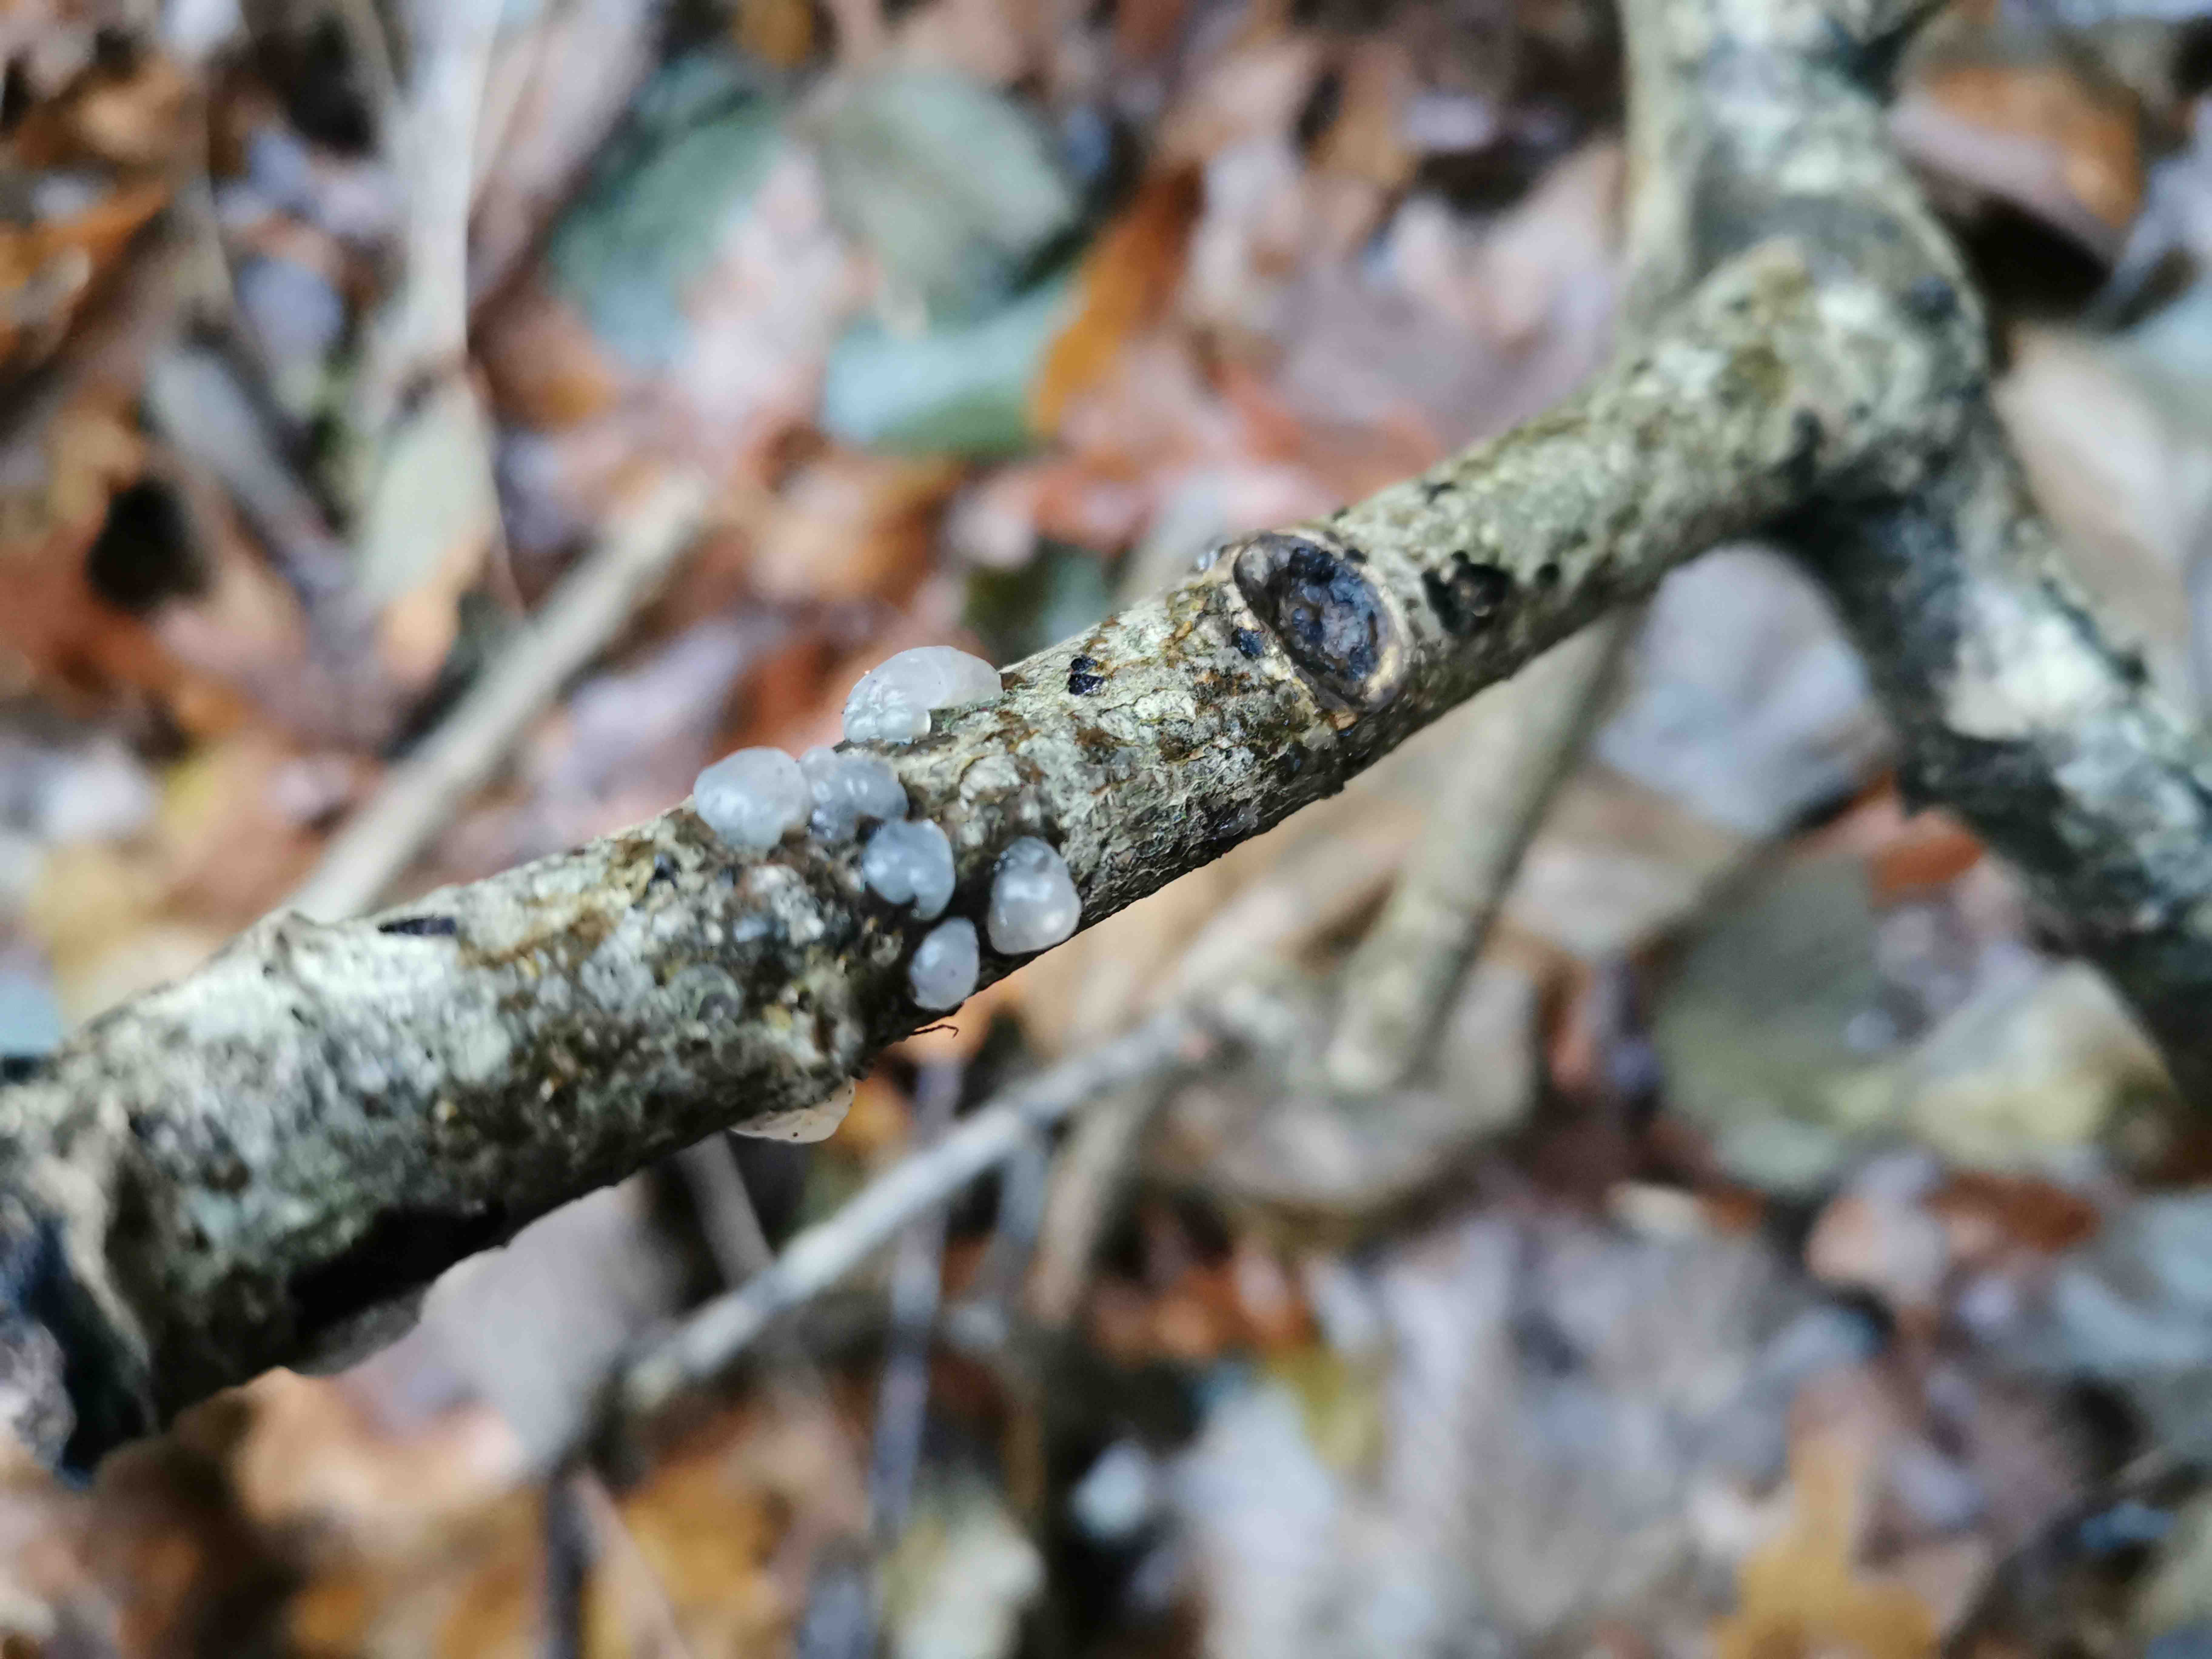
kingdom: Fungi
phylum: Basidiomycota
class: Agaricomycetes
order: Auriculariales
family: Hyaloriaceae
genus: Myxarium
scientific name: Myxarium nucleatum
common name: klar bævretop
